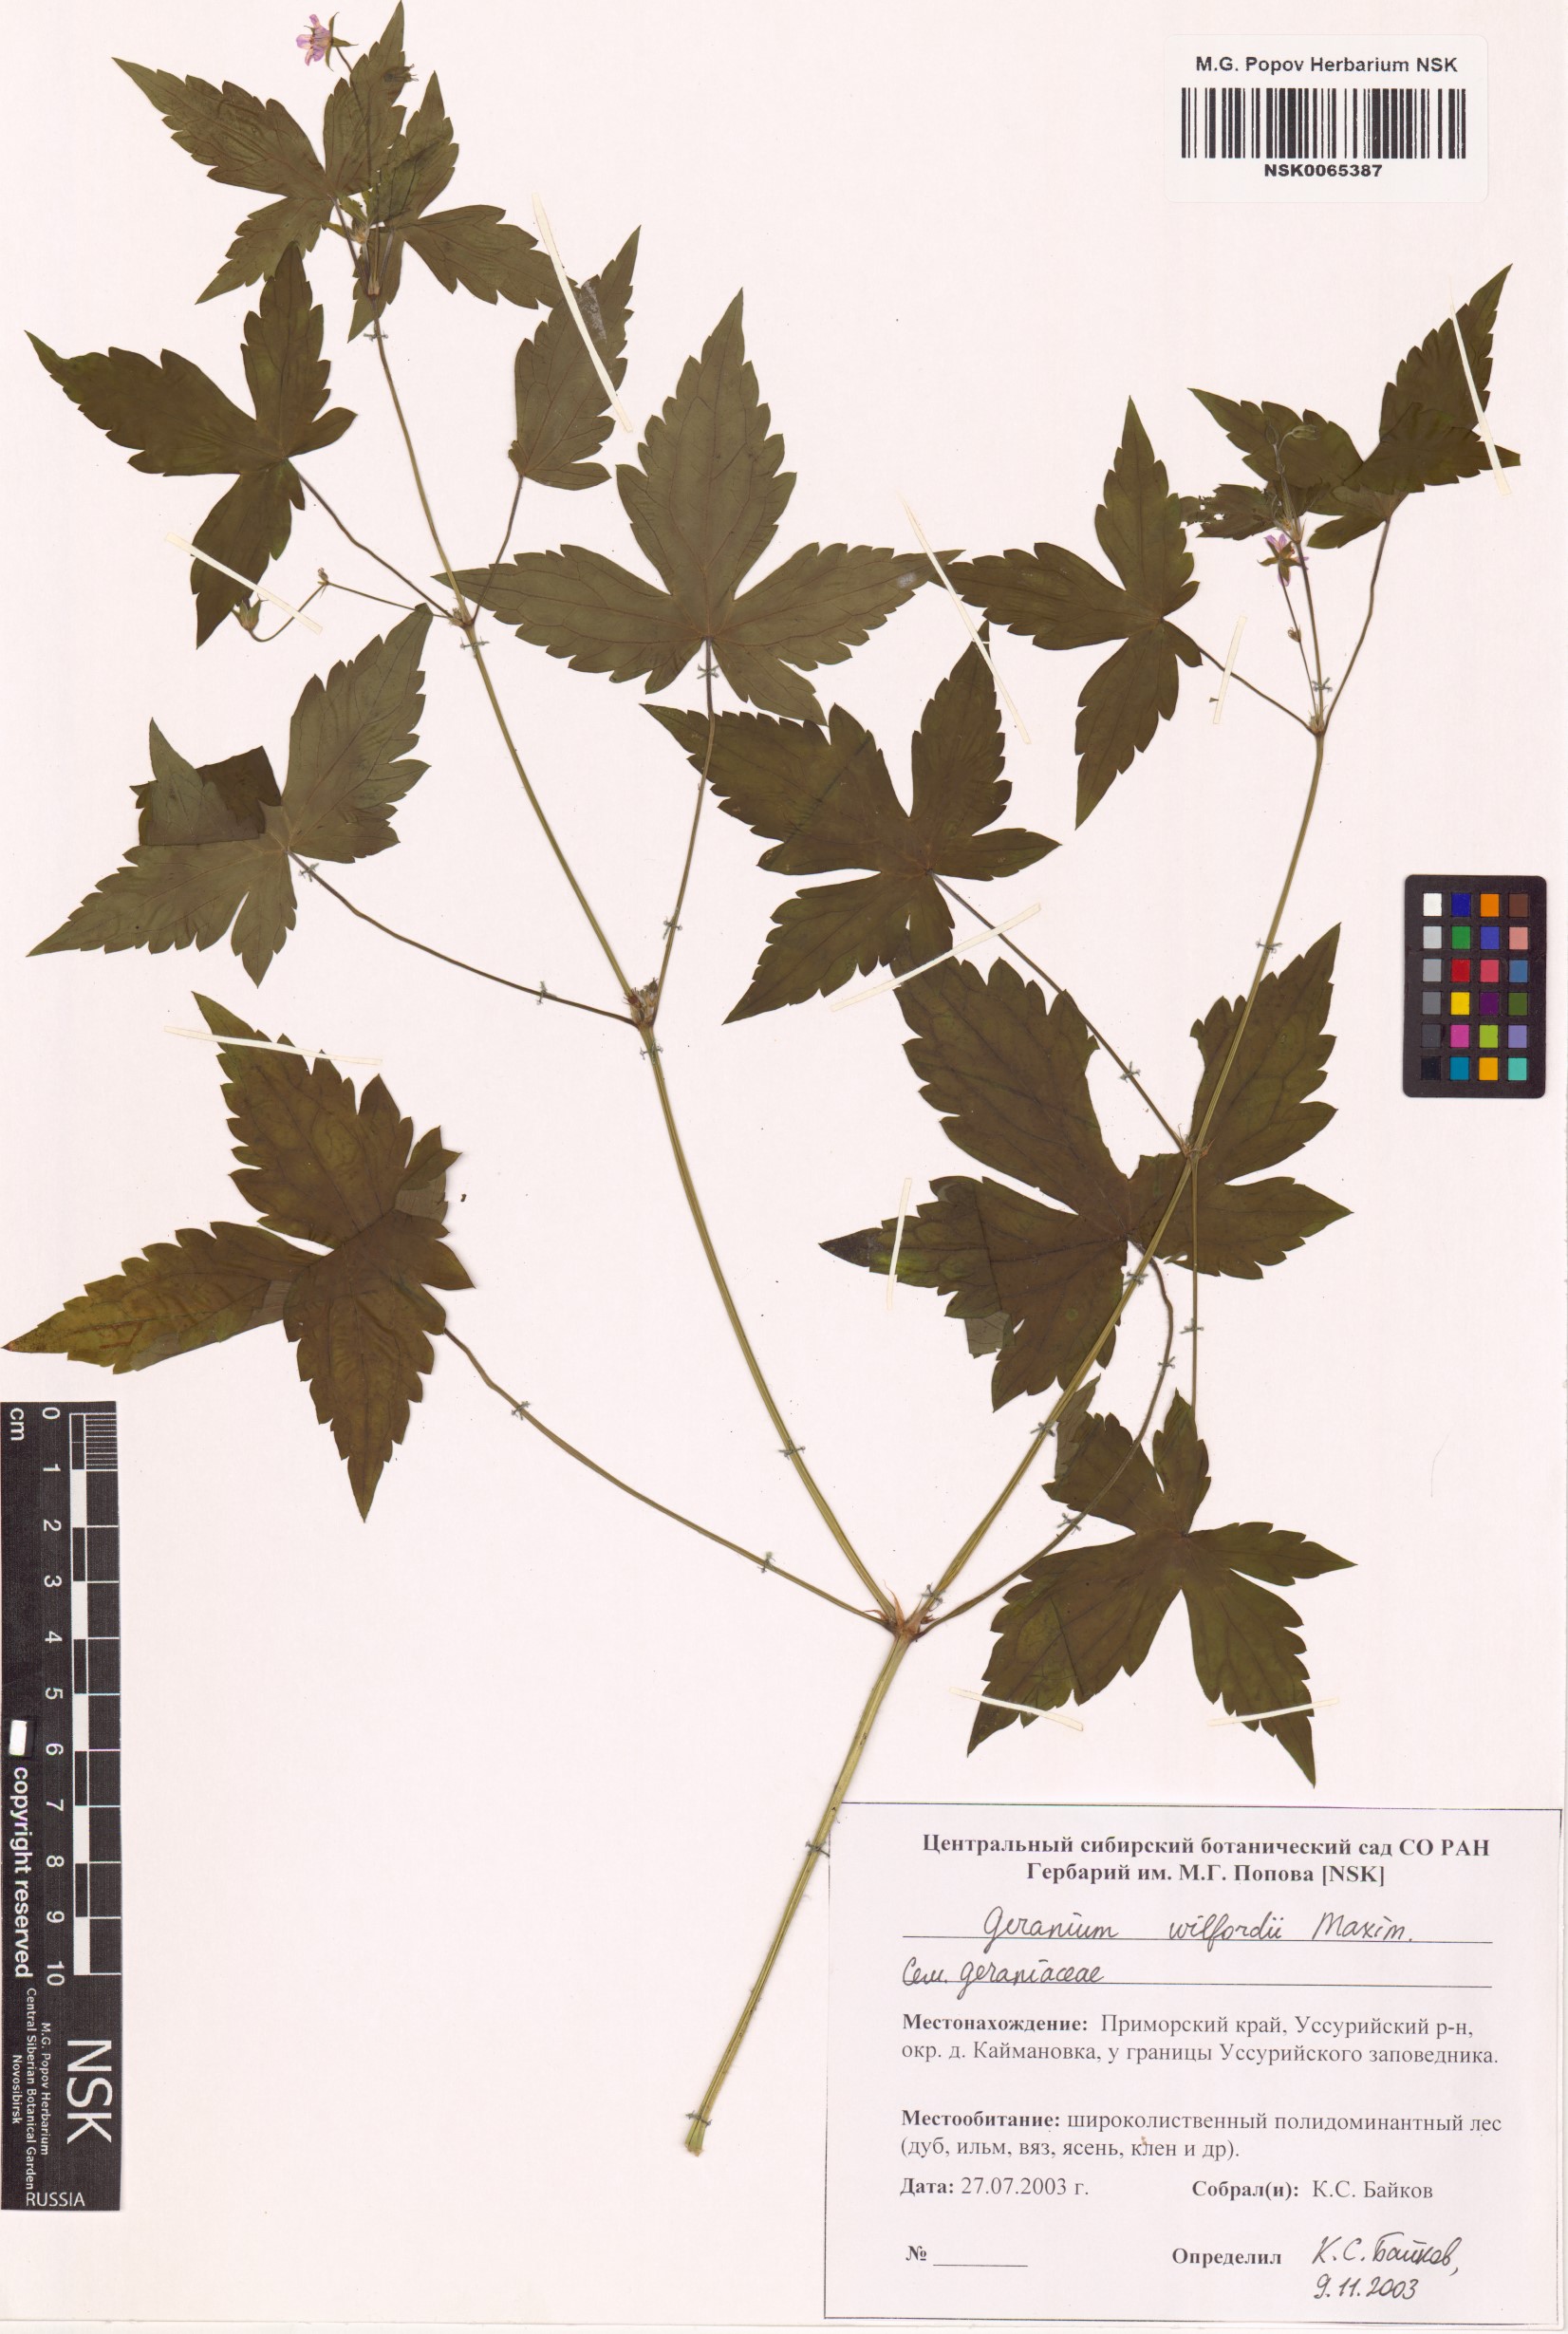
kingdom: Plantae
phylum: Tracheophyta
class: Magnoliopsida
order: Geraniales
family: Geraniaceae
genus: Geranium
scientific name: Geranium wilfordii
